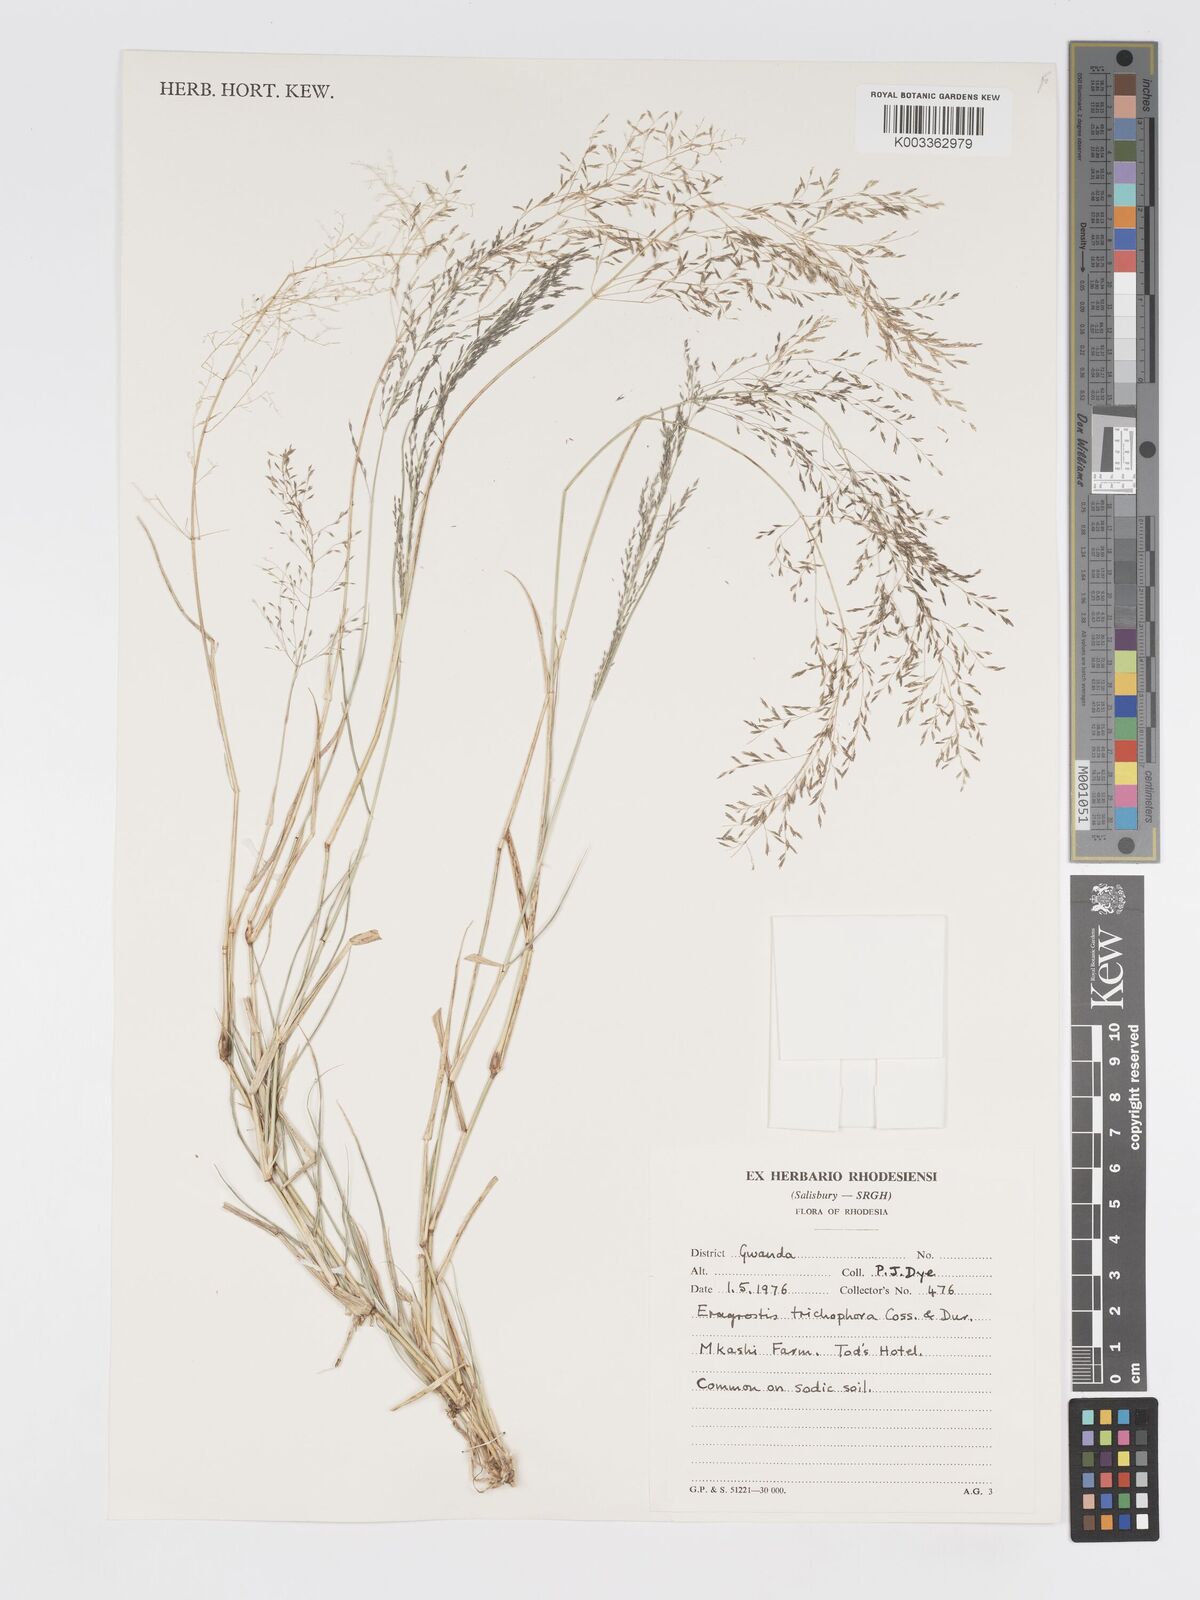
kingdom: Plantae
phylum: Tracheophyta
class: Liliopsida
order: Poales
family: Poaceae
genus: Eragrostis
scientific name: Eragrostis cylindriflora
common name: Cylinderflower lovegrass
